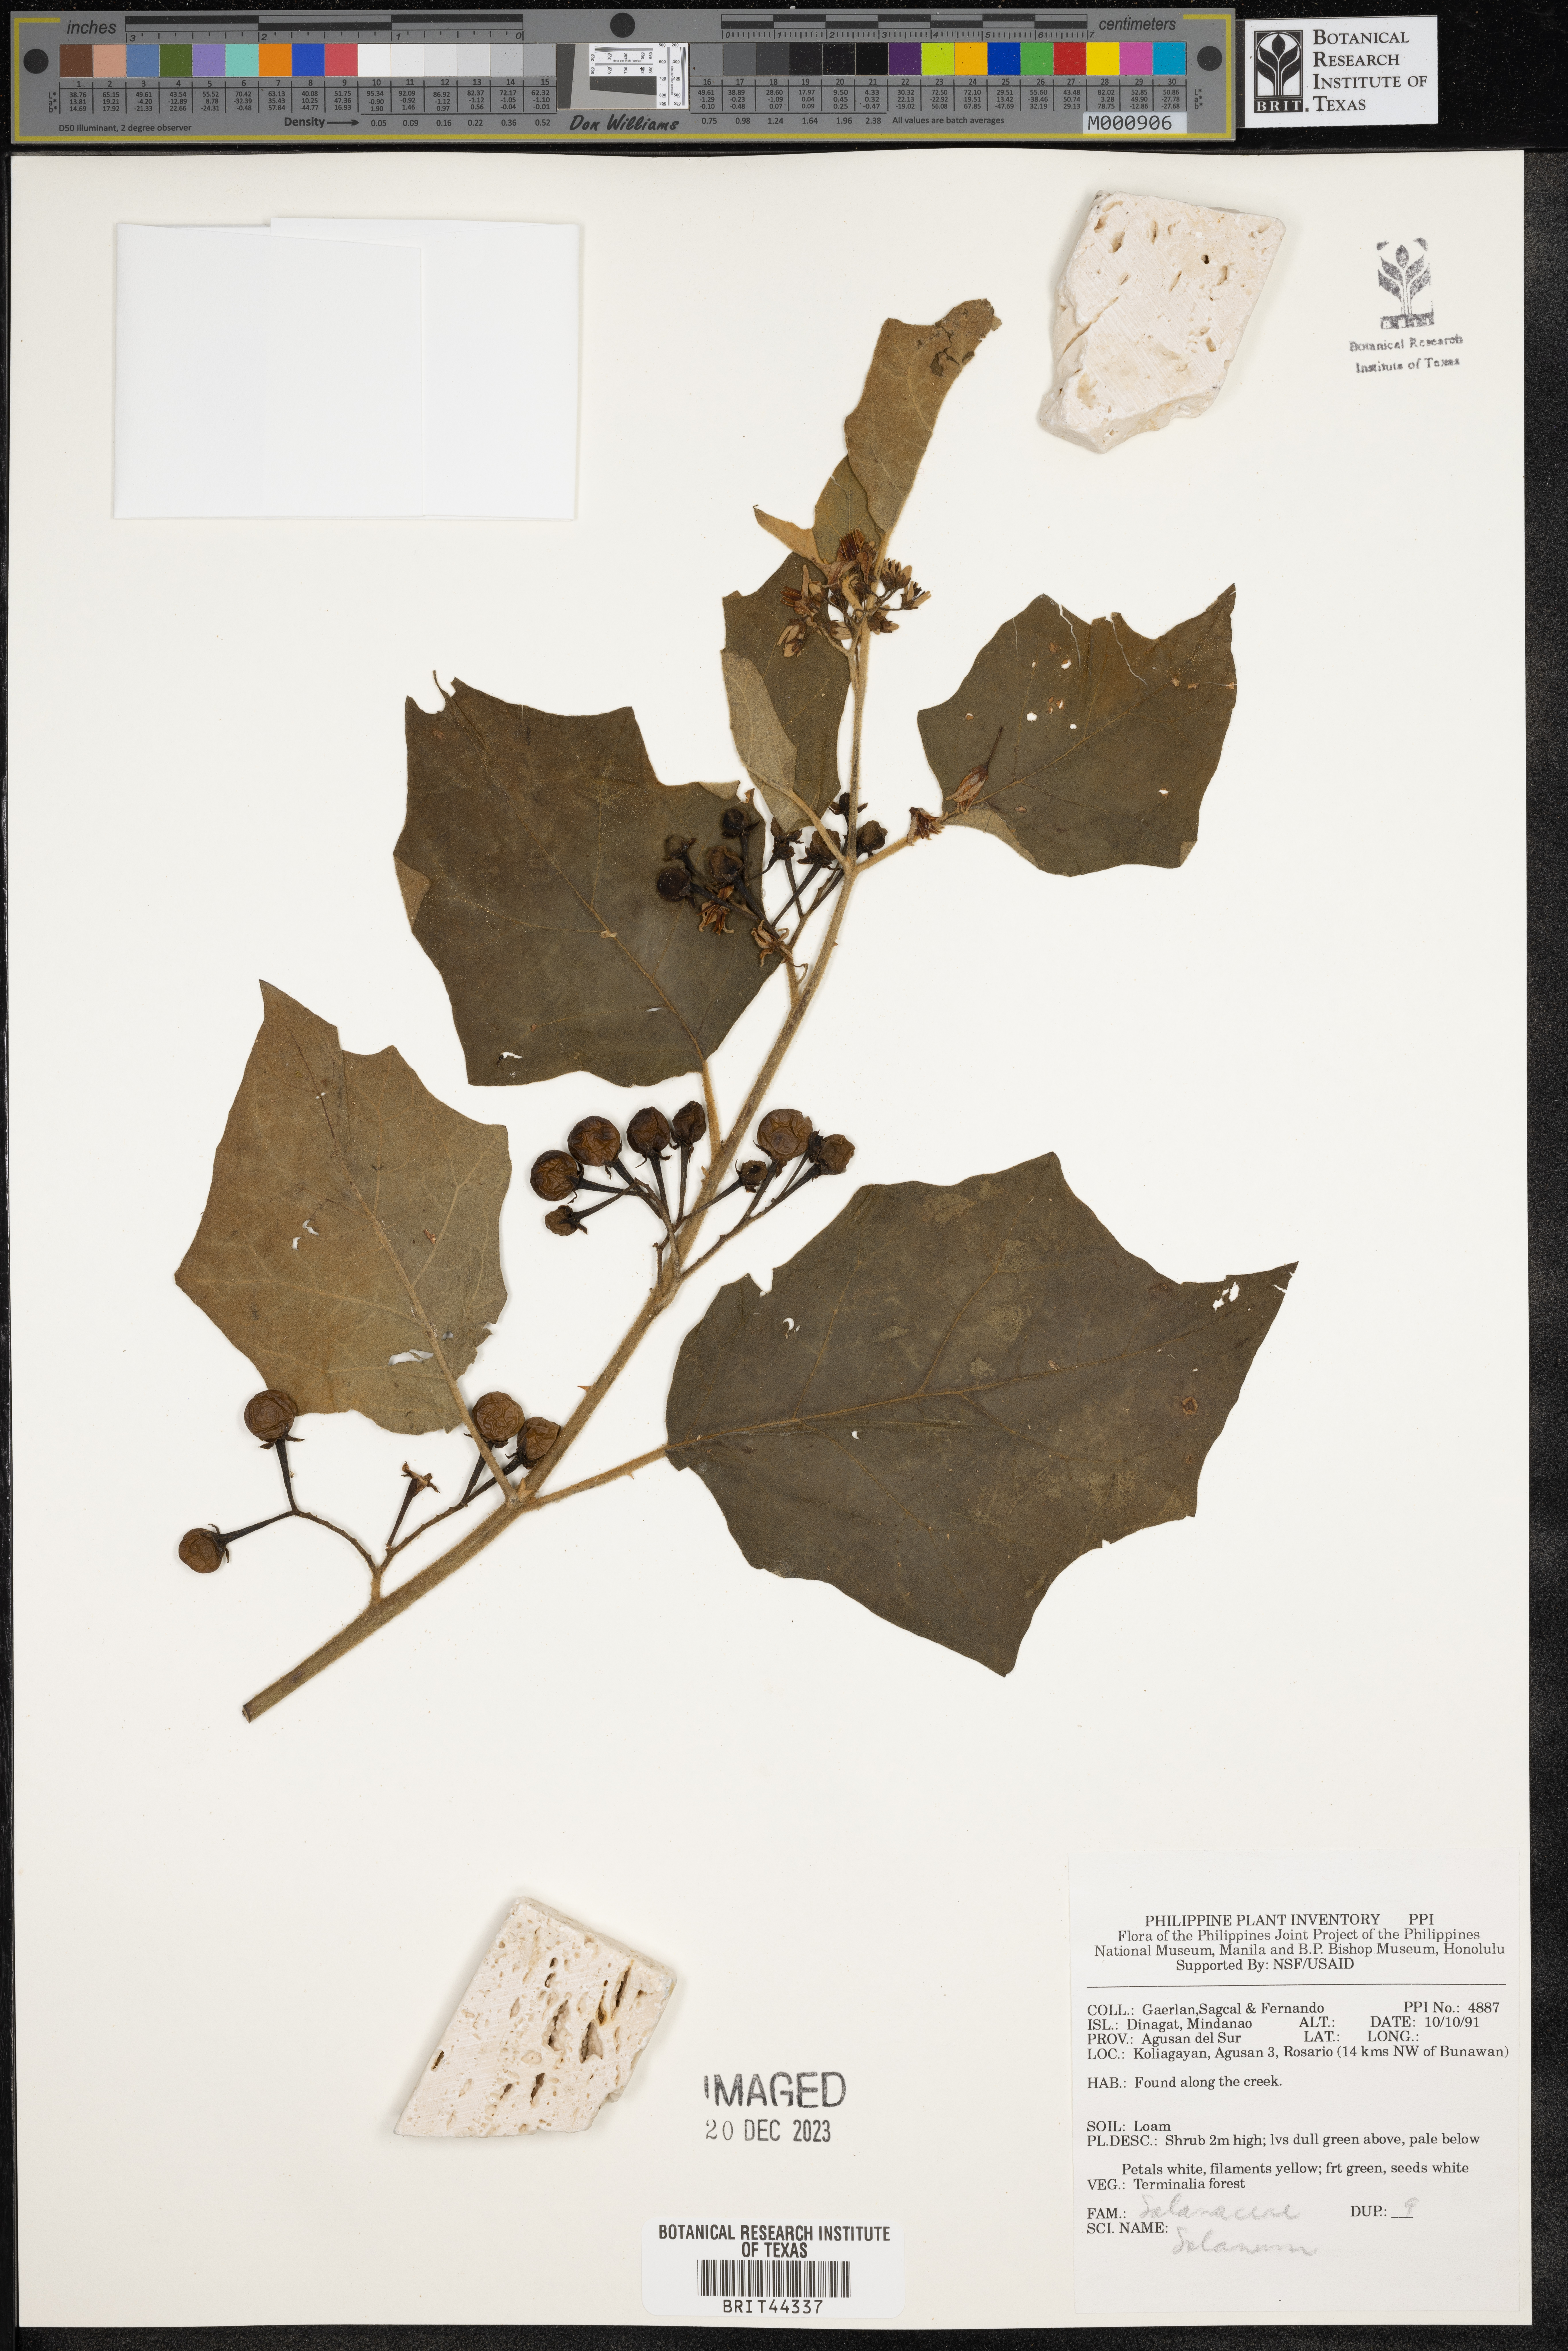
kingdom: Plantae
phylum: Tracheophyta
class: Magnoliopsida
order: Solanales
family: Solanaceae
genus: Solanum
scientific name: Solanum
